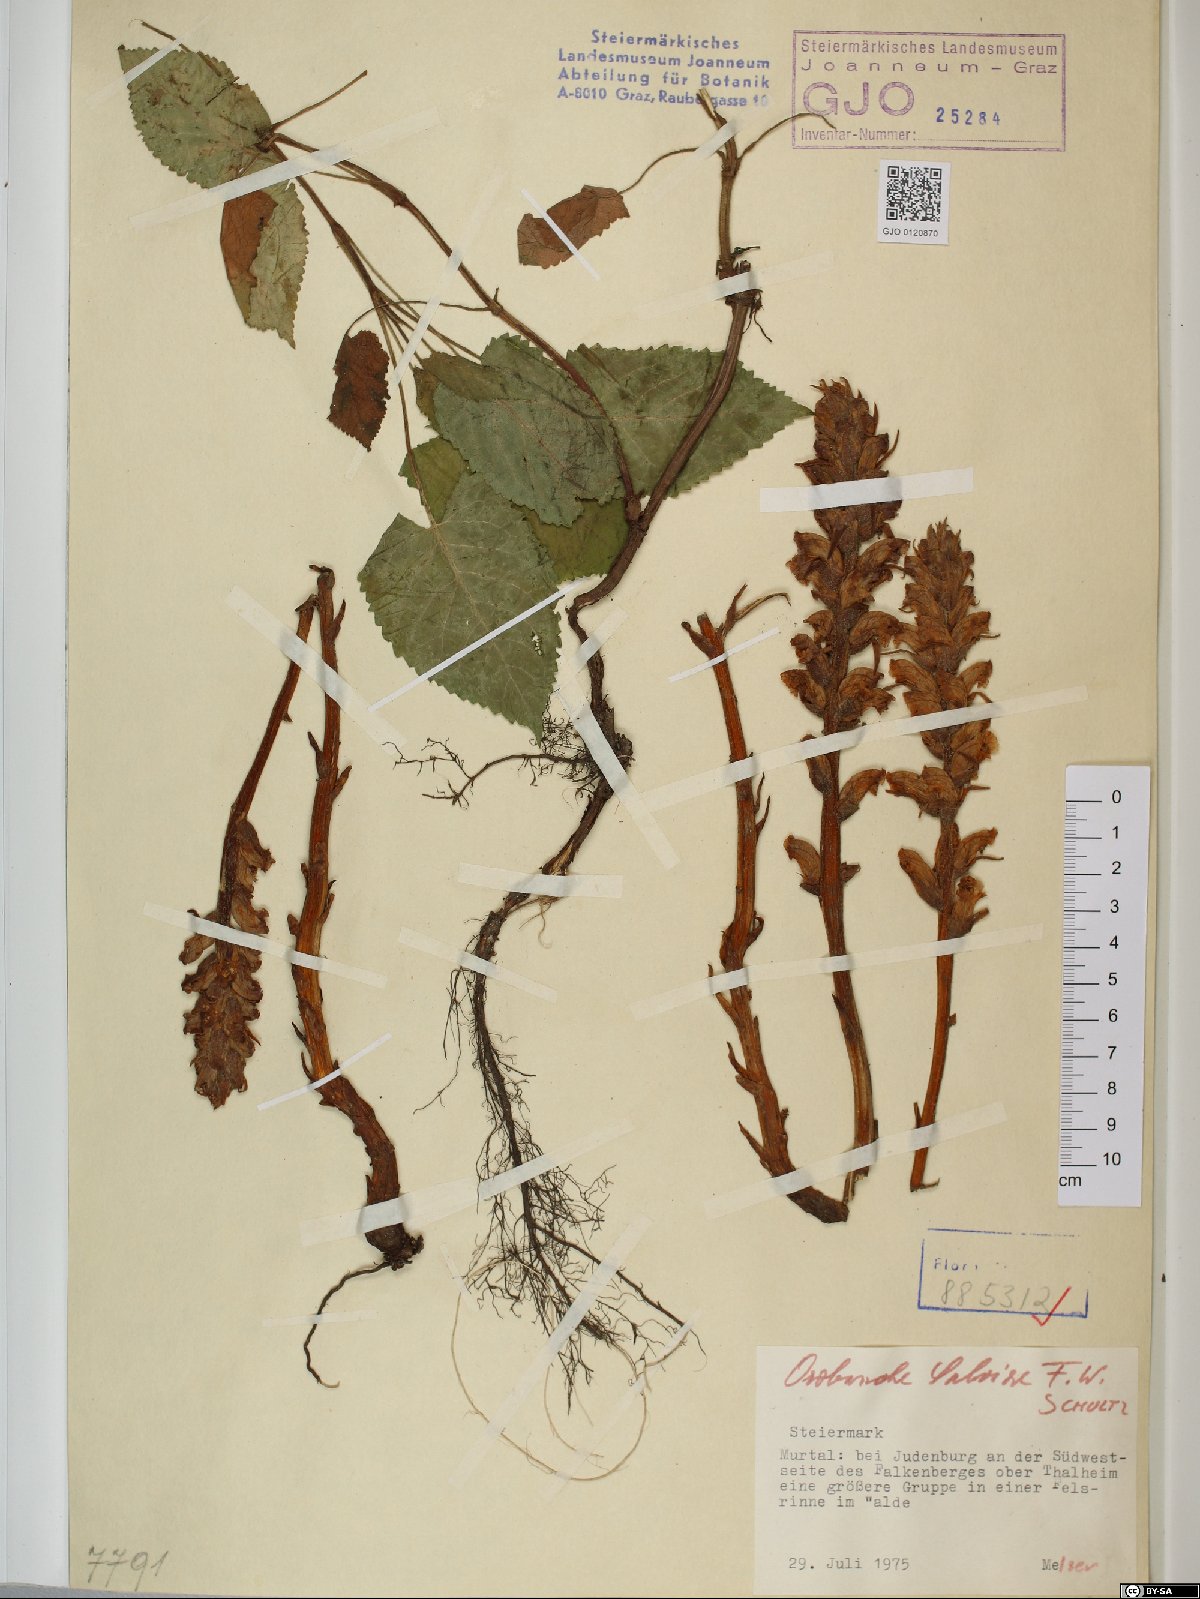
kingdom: Plantae
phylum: Tracheophyta
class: Magnoliopsida
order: Lamiales
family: Orobanchaceae
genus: Orobanche
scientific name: Orobanche salviae
